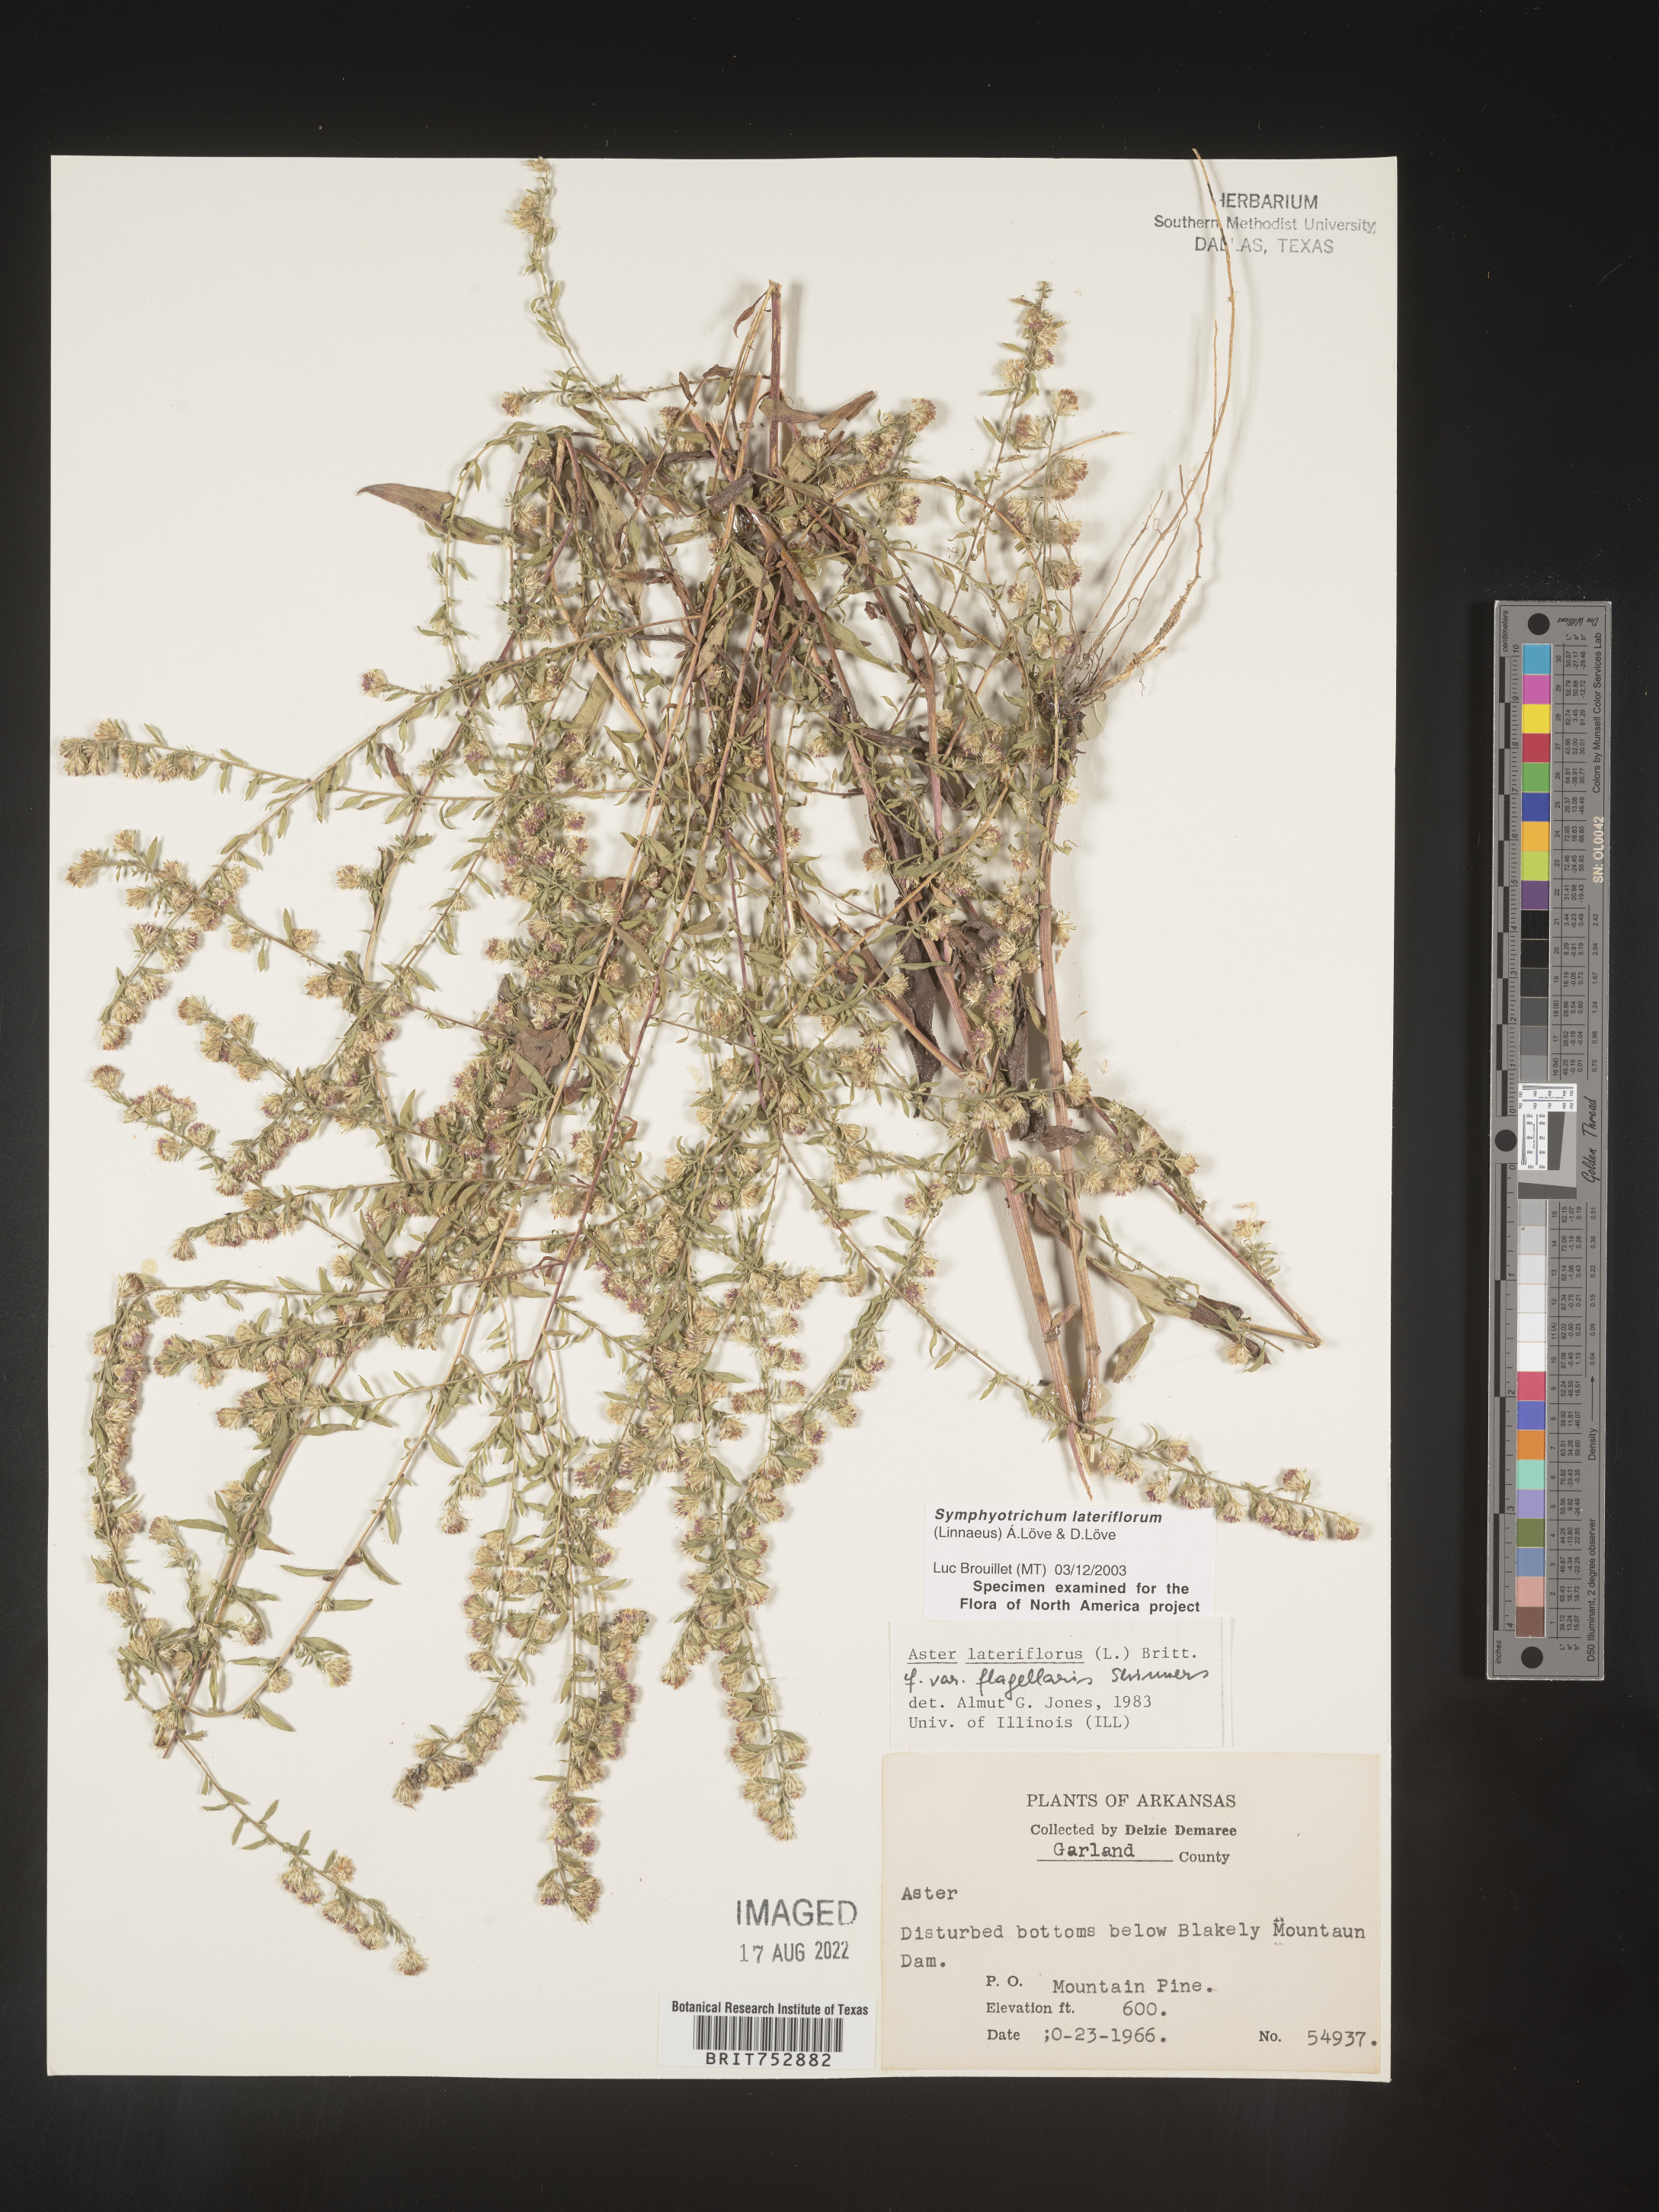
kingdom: Plantae
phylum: Tracheophyta
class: Magnoliopsida
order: Asterales
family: Asteraceae
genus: Symphyotrichum
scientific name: Symphyotrichum lateriflorum
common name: Calico aster
